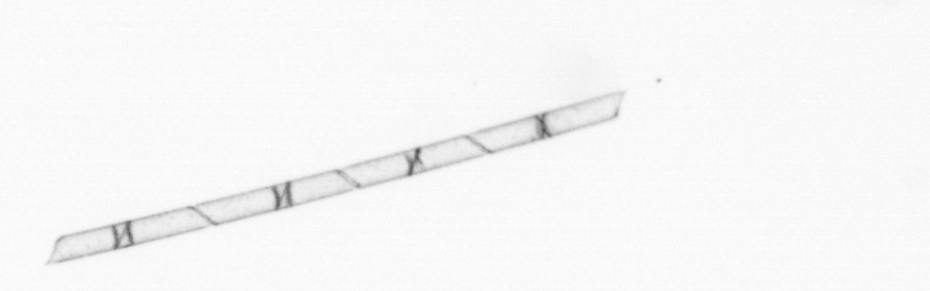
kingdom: Chromista
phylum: Ochrophyta
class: Bacillariophyceae
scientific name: Bacillariophyceae
